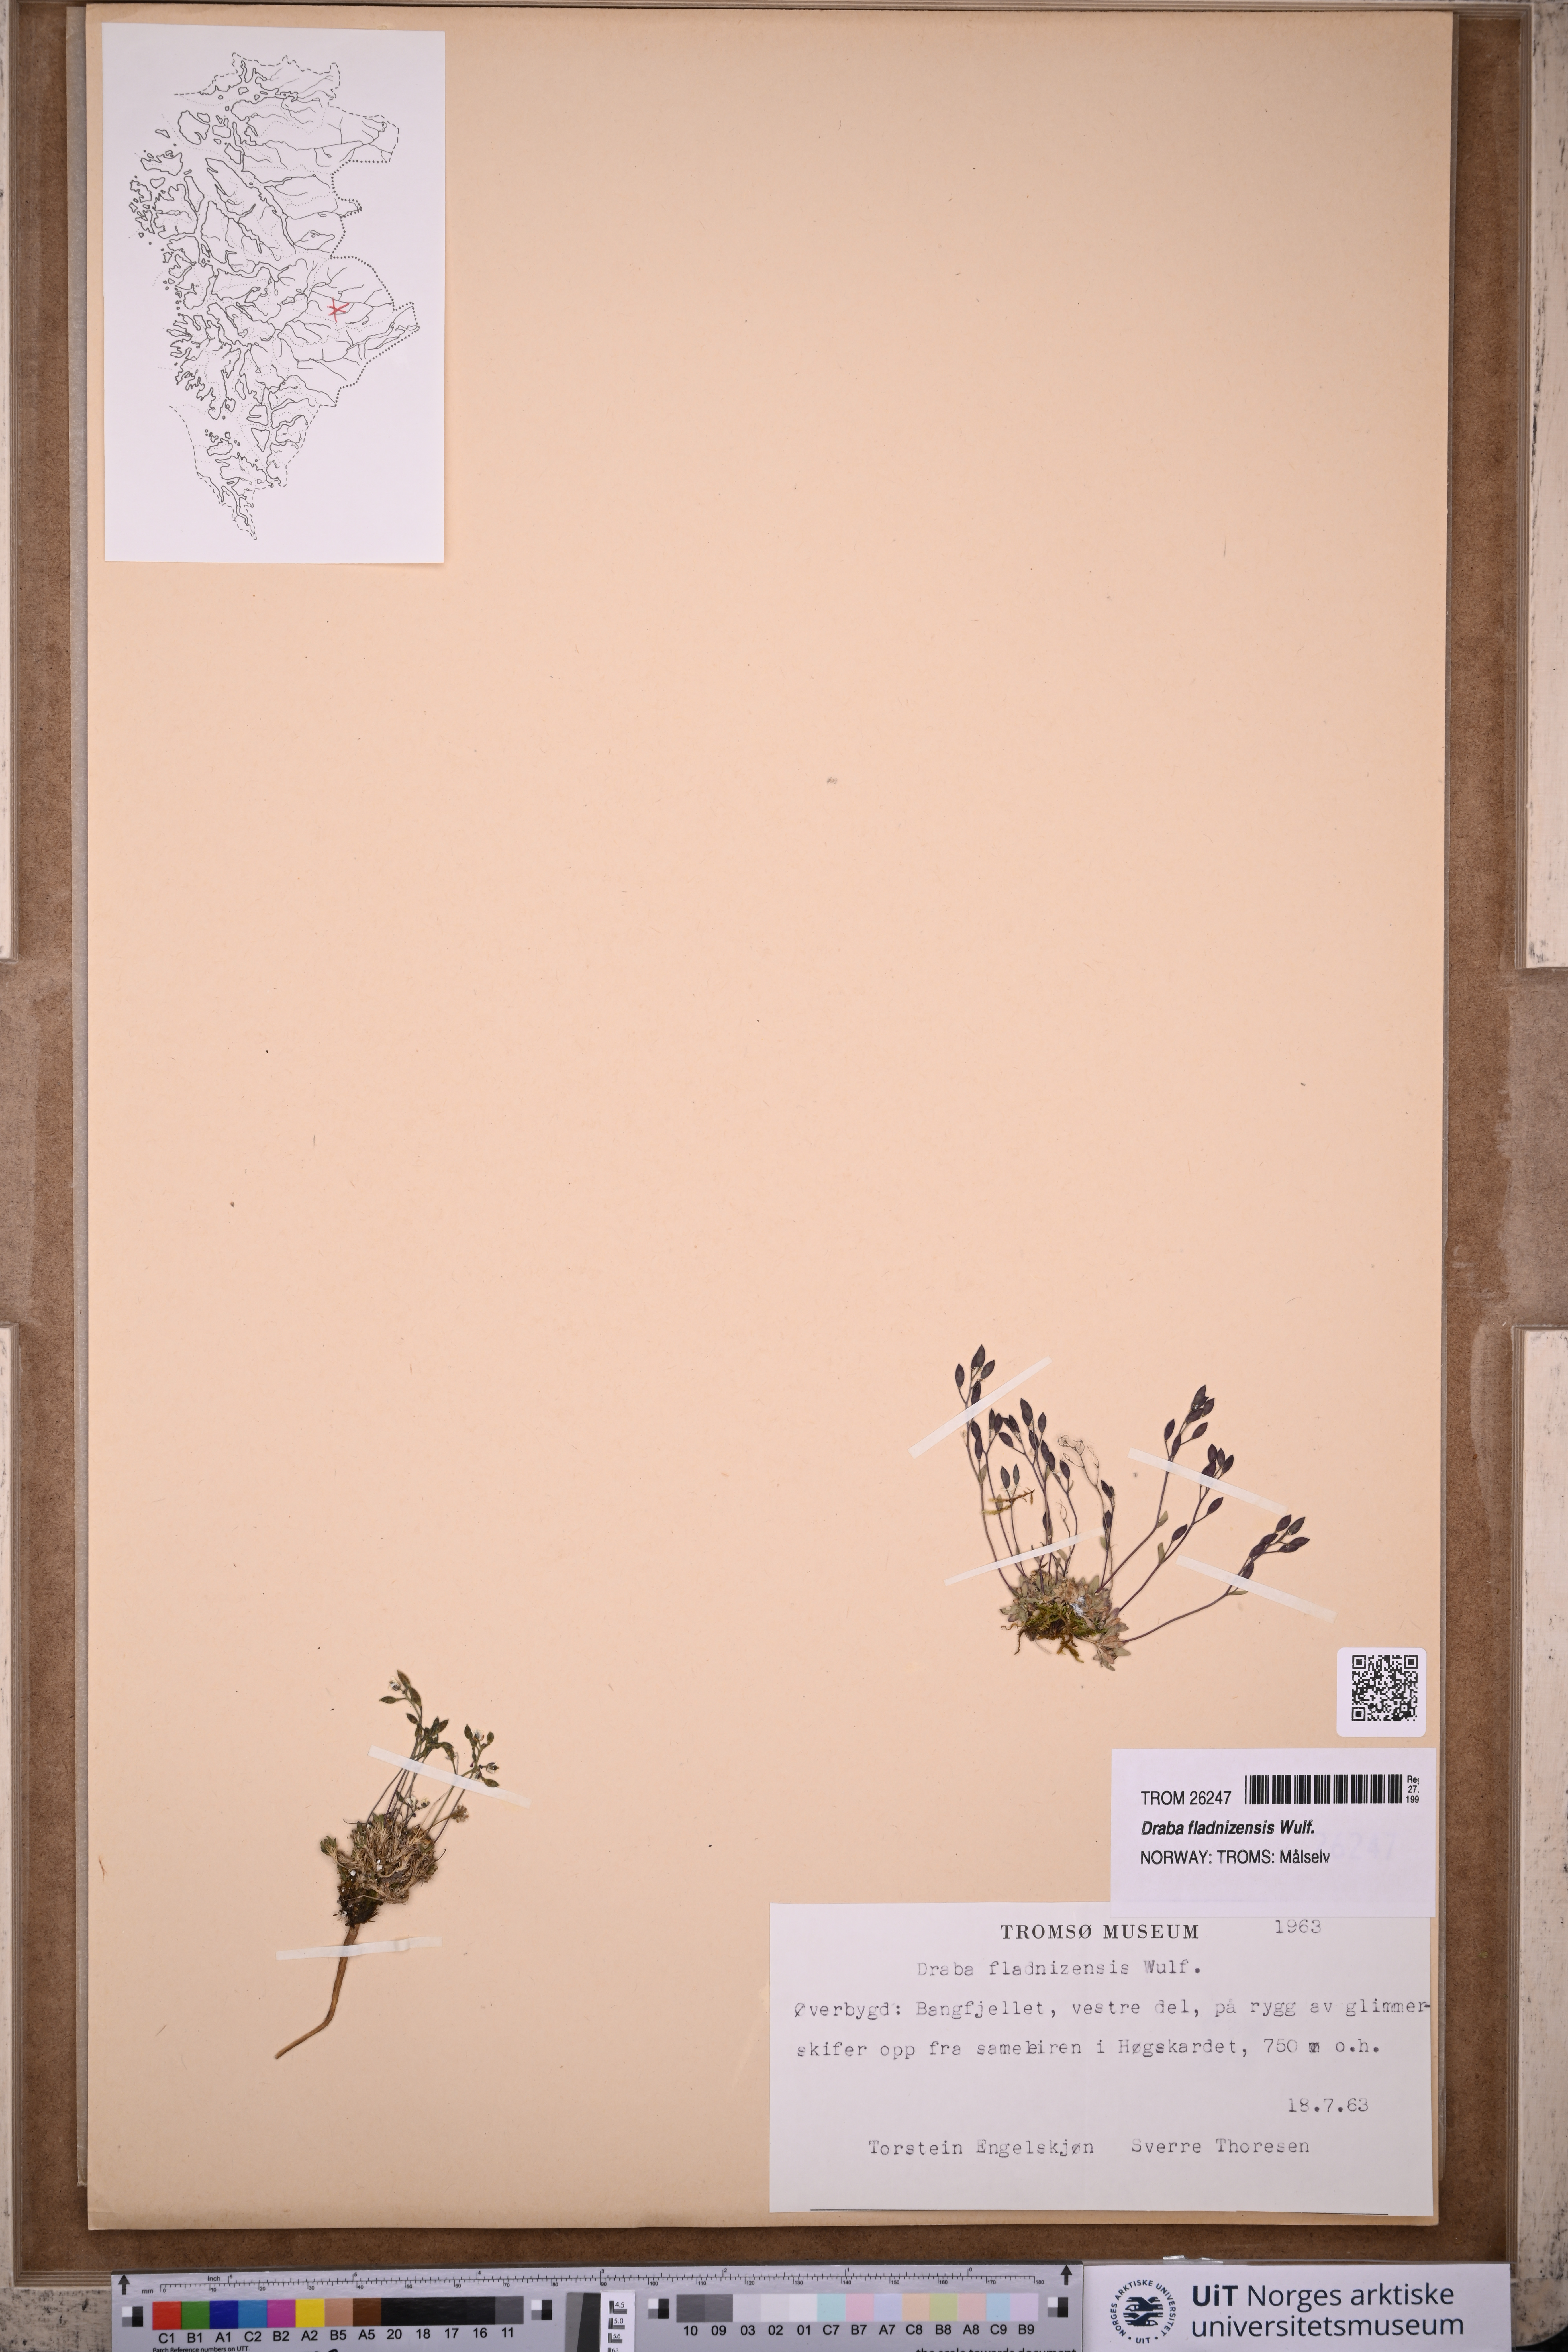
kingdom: Plantae
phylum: Tracheophyta
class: Magnoliopsida
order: Brassicales
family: Brassicaceae
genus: Draba
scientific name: Draba fladnizensis
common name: Austrian draba
